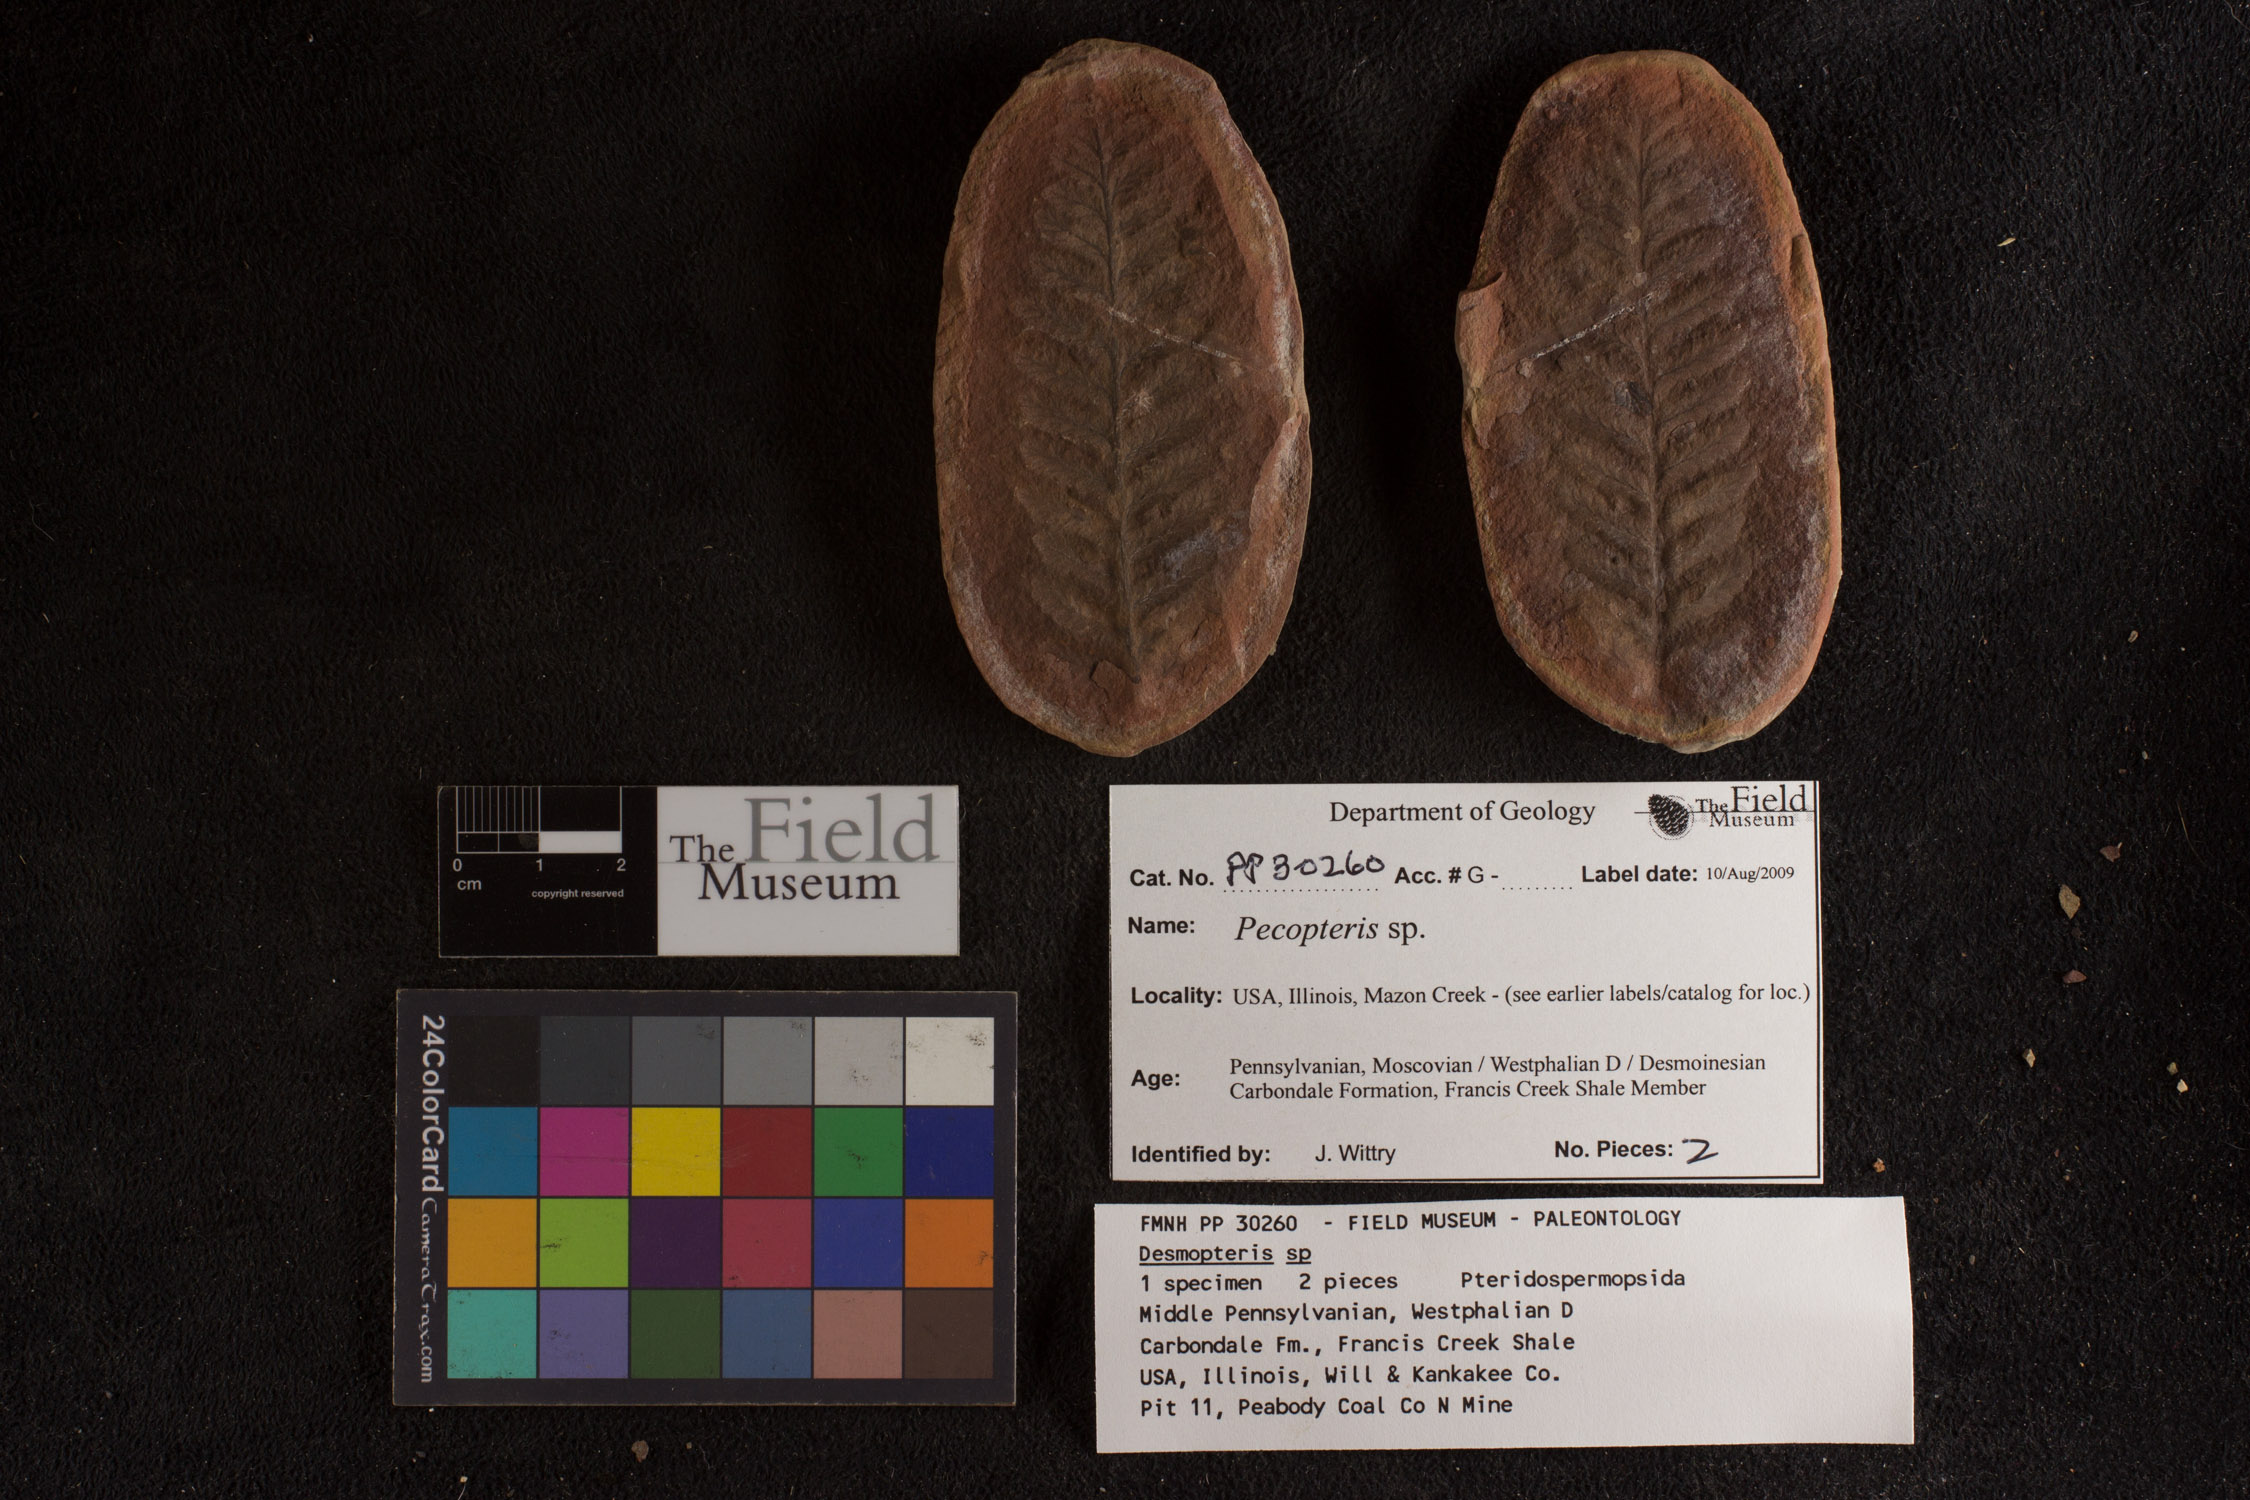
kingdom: Plantae
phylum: Tracheophyta
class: Polypodiopsida
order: Marattiales
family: Asterothecaceae
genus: Pecopteris
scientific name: Pecopteris
